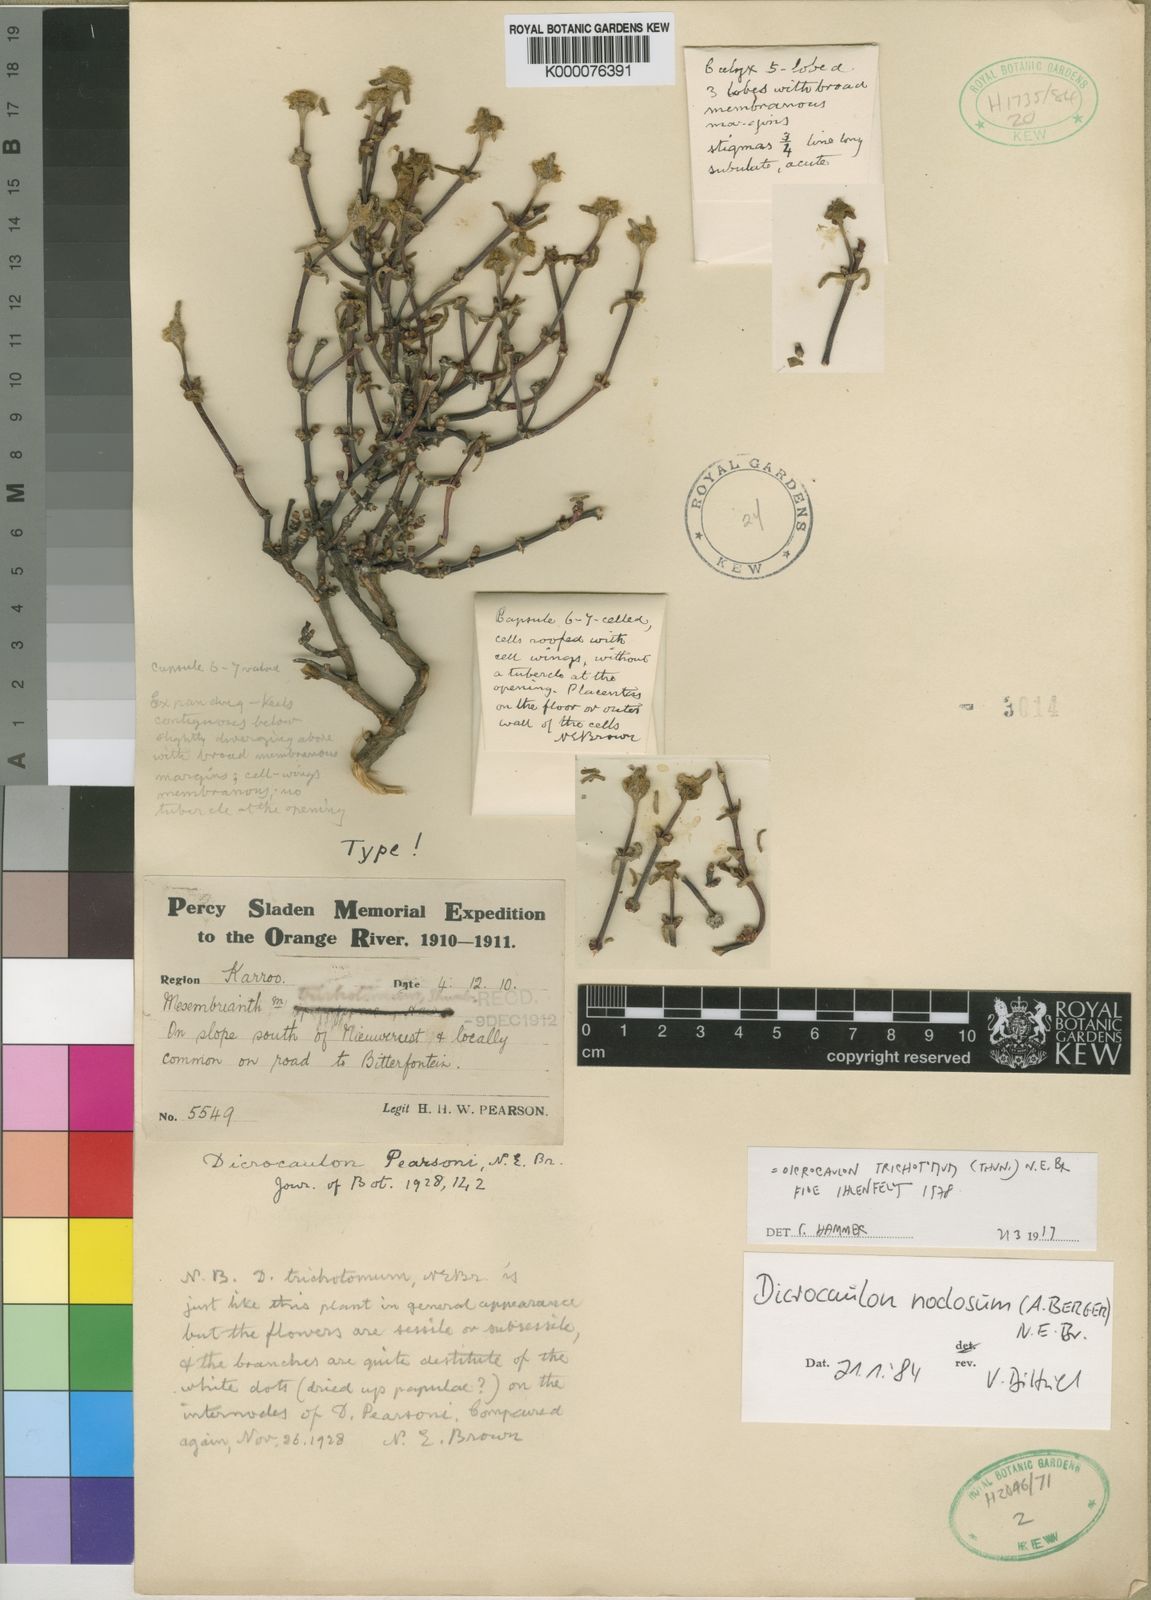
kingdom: Plantae
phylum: Tracheophyta
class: Magnoliopsida
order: Caryophyllales
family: Aizoaceae
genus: Mesembryanthemum
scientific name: Mesembryanthemum trichotomum
